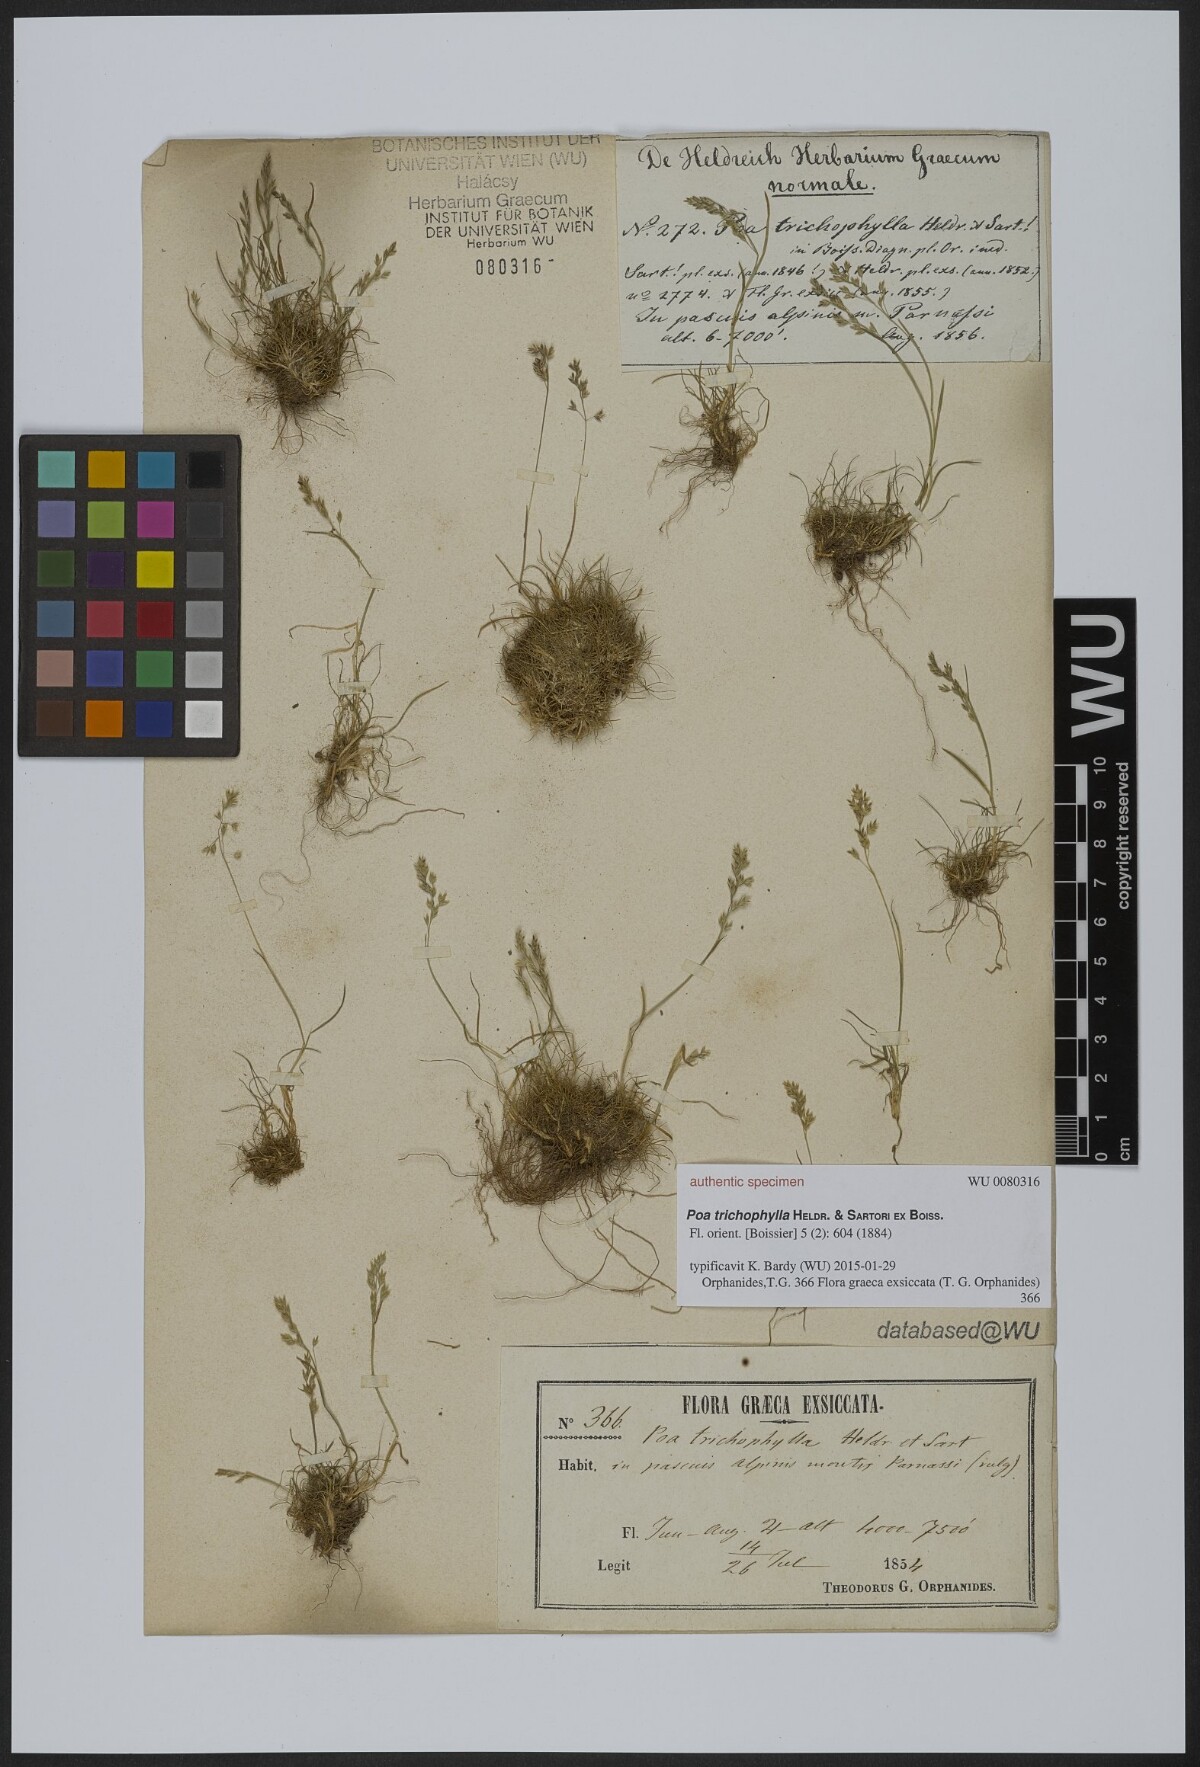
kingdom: Plantae
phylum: Tracheophyta
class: Liliopsida
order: Poales
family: Poaceae
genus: Poa
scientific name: Poa trichophylla
